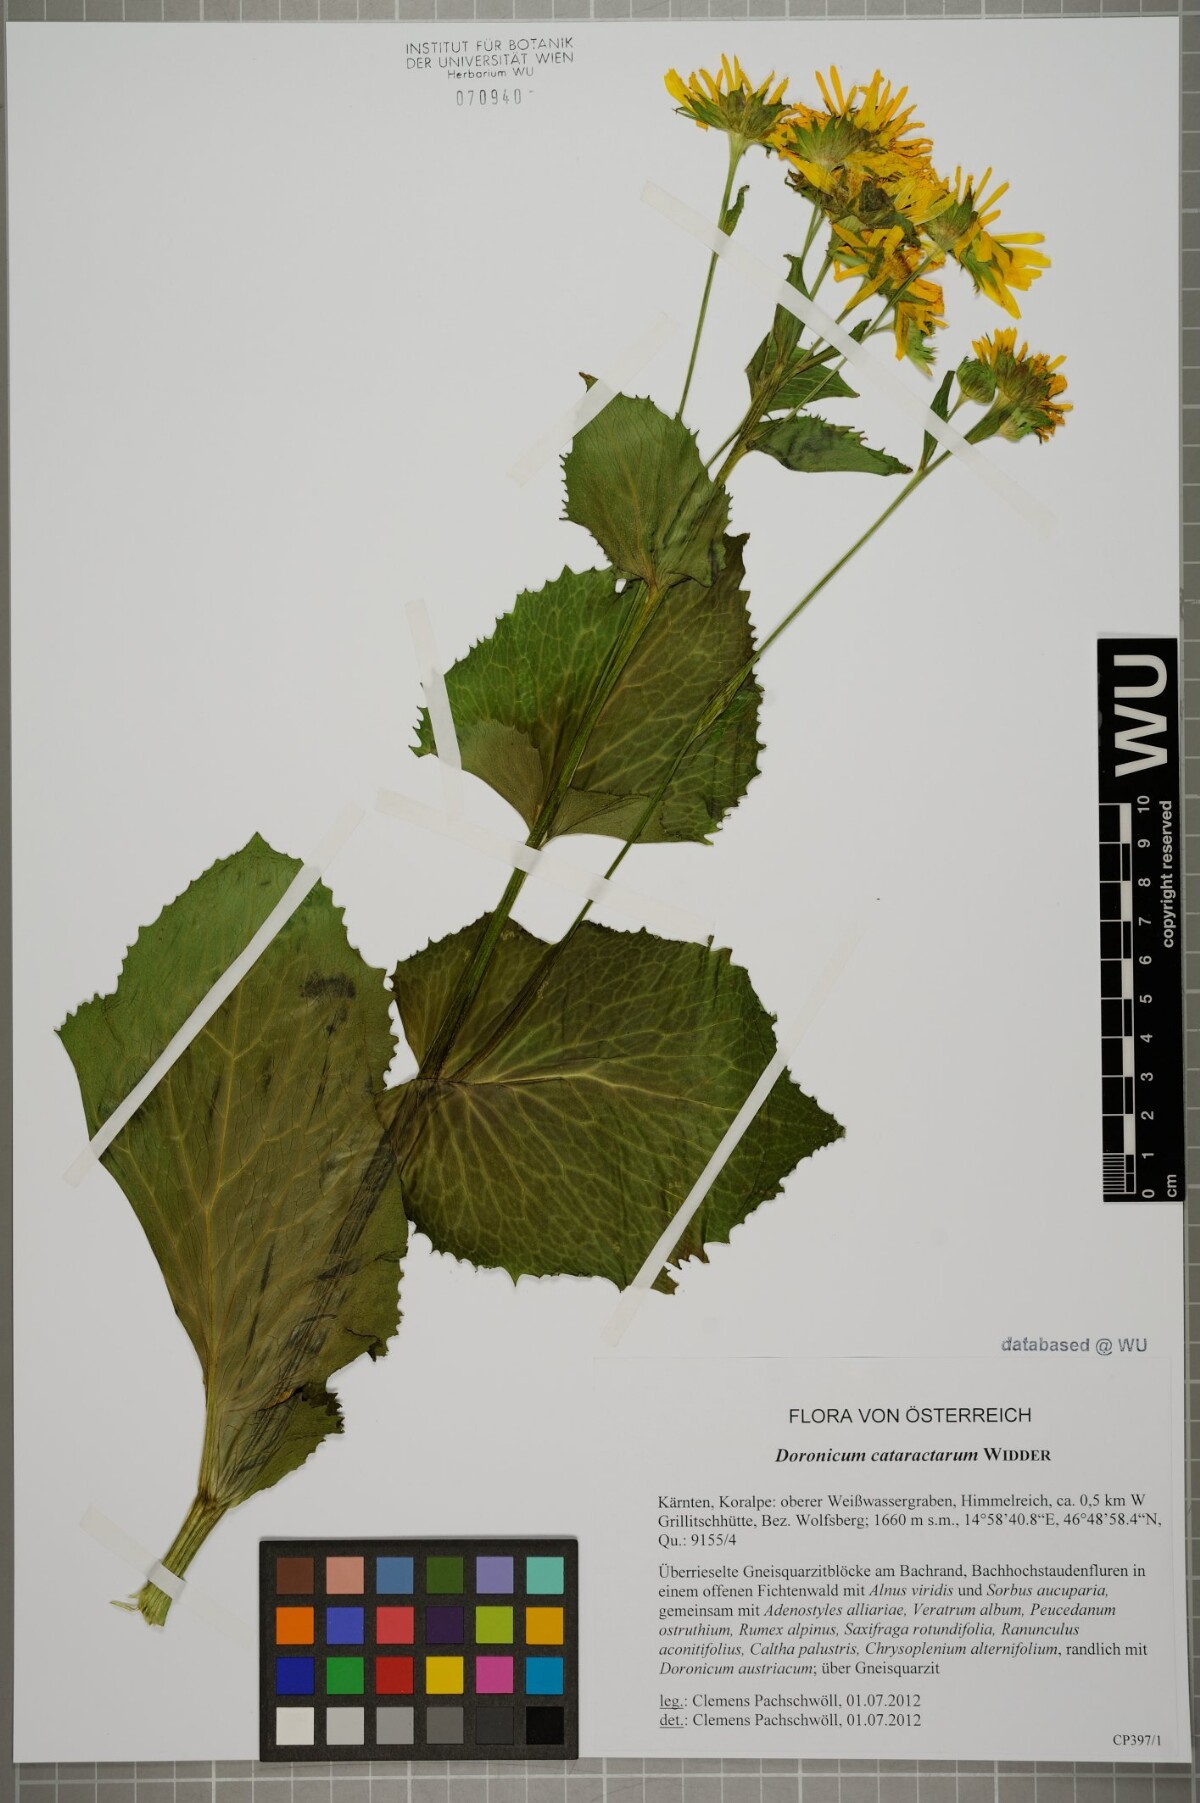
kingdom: Plantae
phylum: Tracheophyta
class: Magnoliopsida
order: Asterales
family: Asteraceae
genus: Doronicum
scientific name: Doronicum cataractarum
